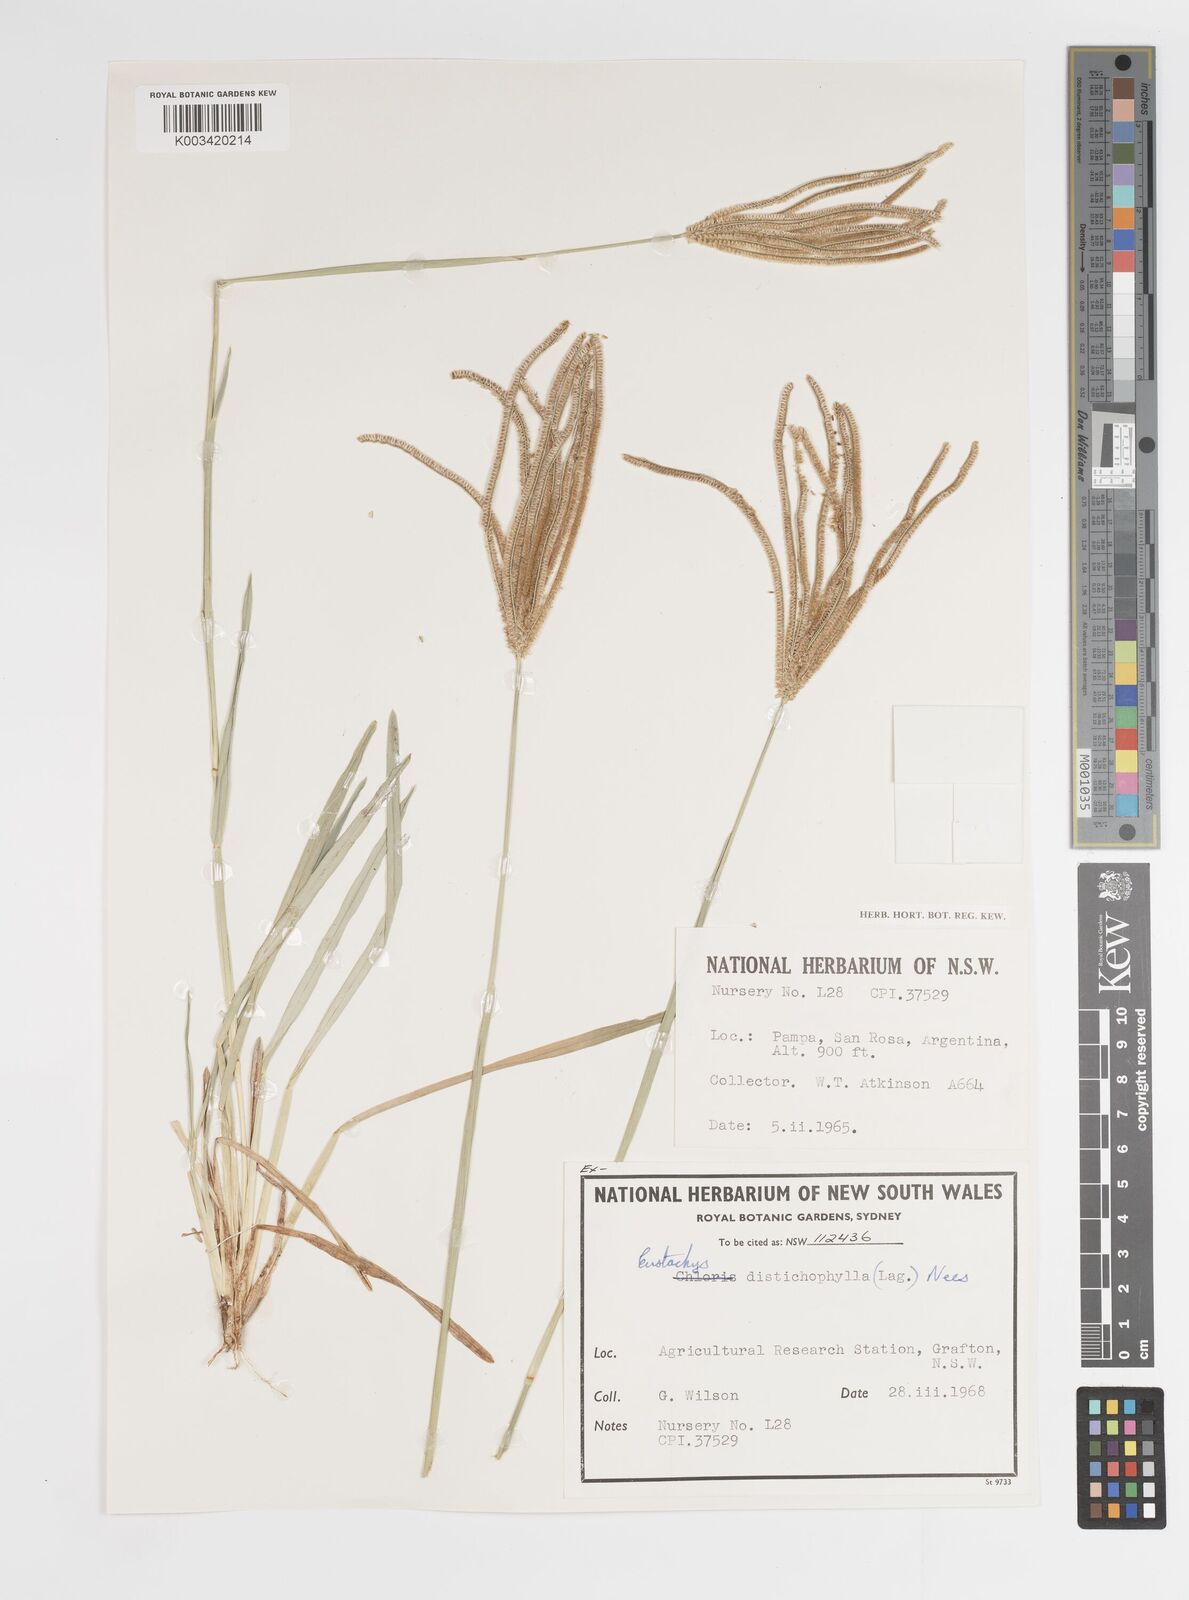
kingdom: Plantae
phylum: Tracheophyta
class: Liliopsida
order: Poales
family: Poaceae
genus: Eustachys
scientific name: Eustachys distichophylla
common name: Weeping fingergrass
